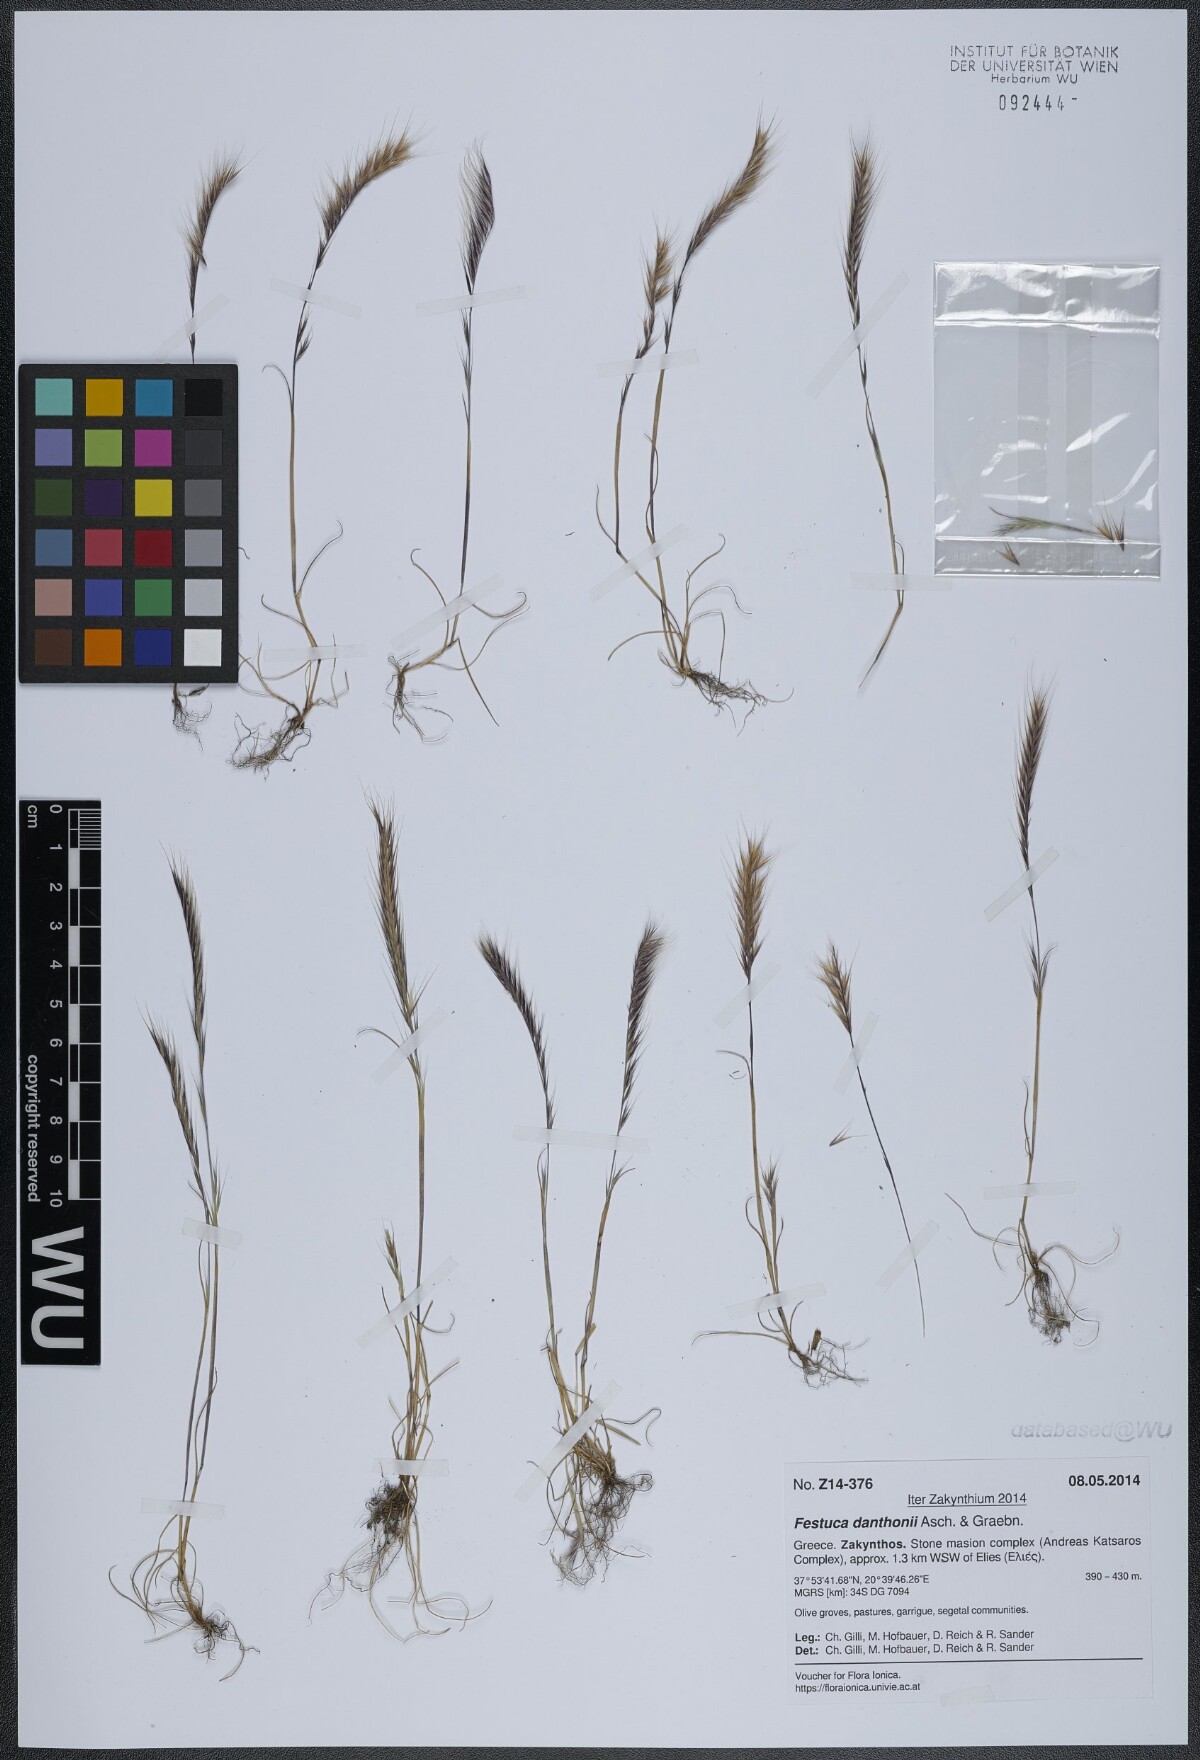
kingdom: Plantae
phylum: Tracheophyta
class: Liliopsida
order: Poales
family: Poaceae
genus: Festuca
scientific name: Festuca ambigua
